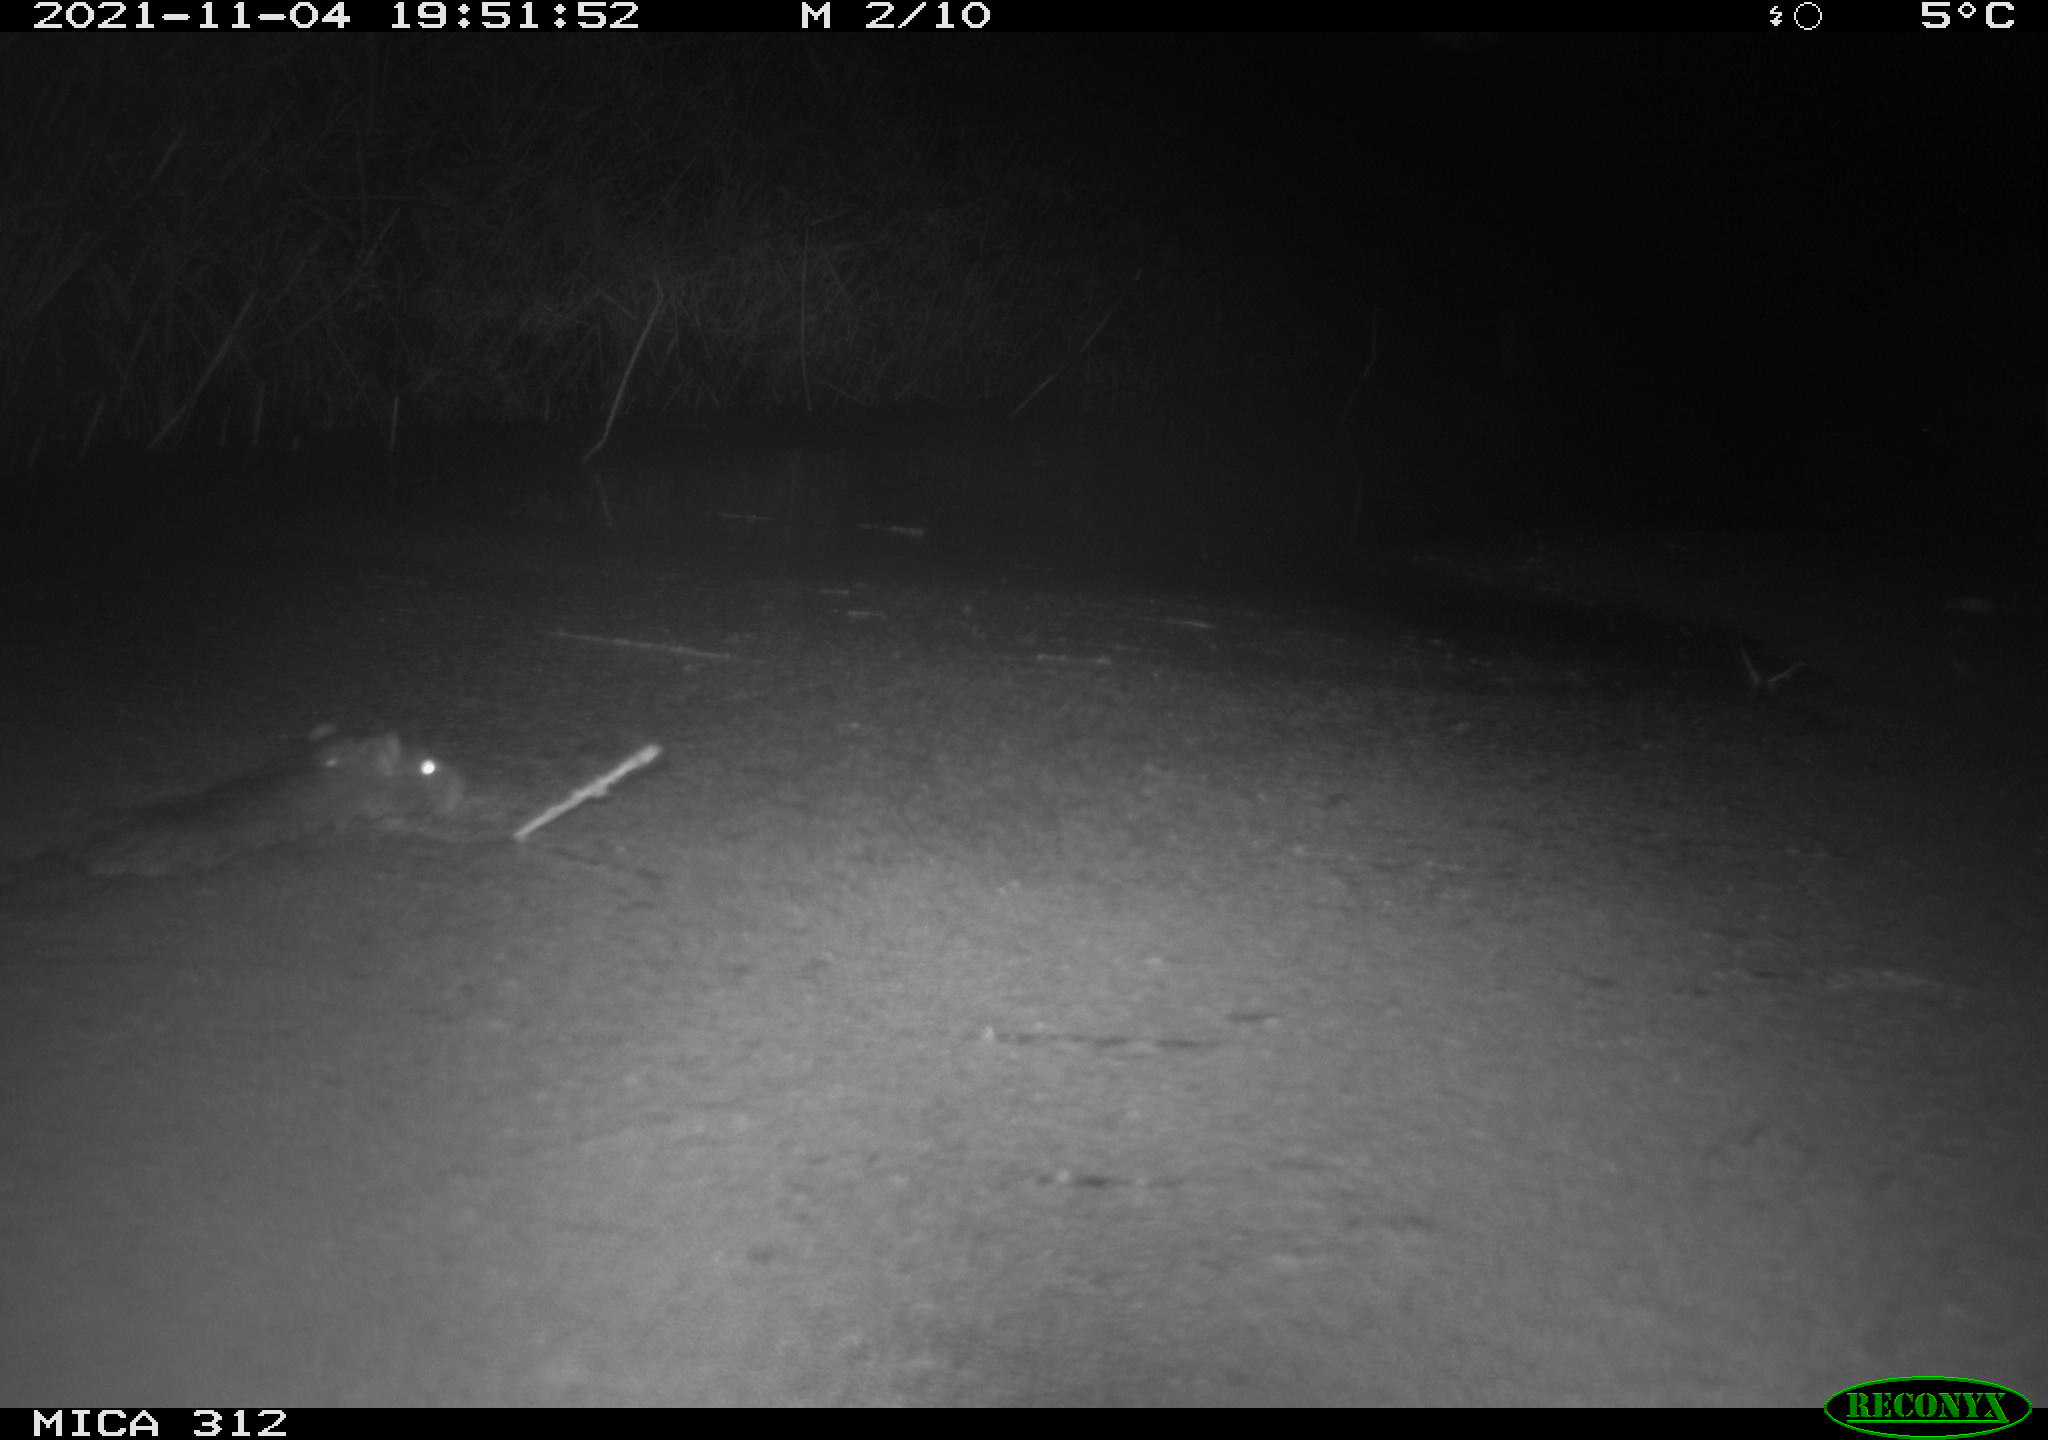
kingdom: Animalia
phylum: Chordata
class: Mammalia
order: Rodentia
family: Muridae
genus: Rattus
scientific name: Rattus norvegicus
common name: Brown rat
